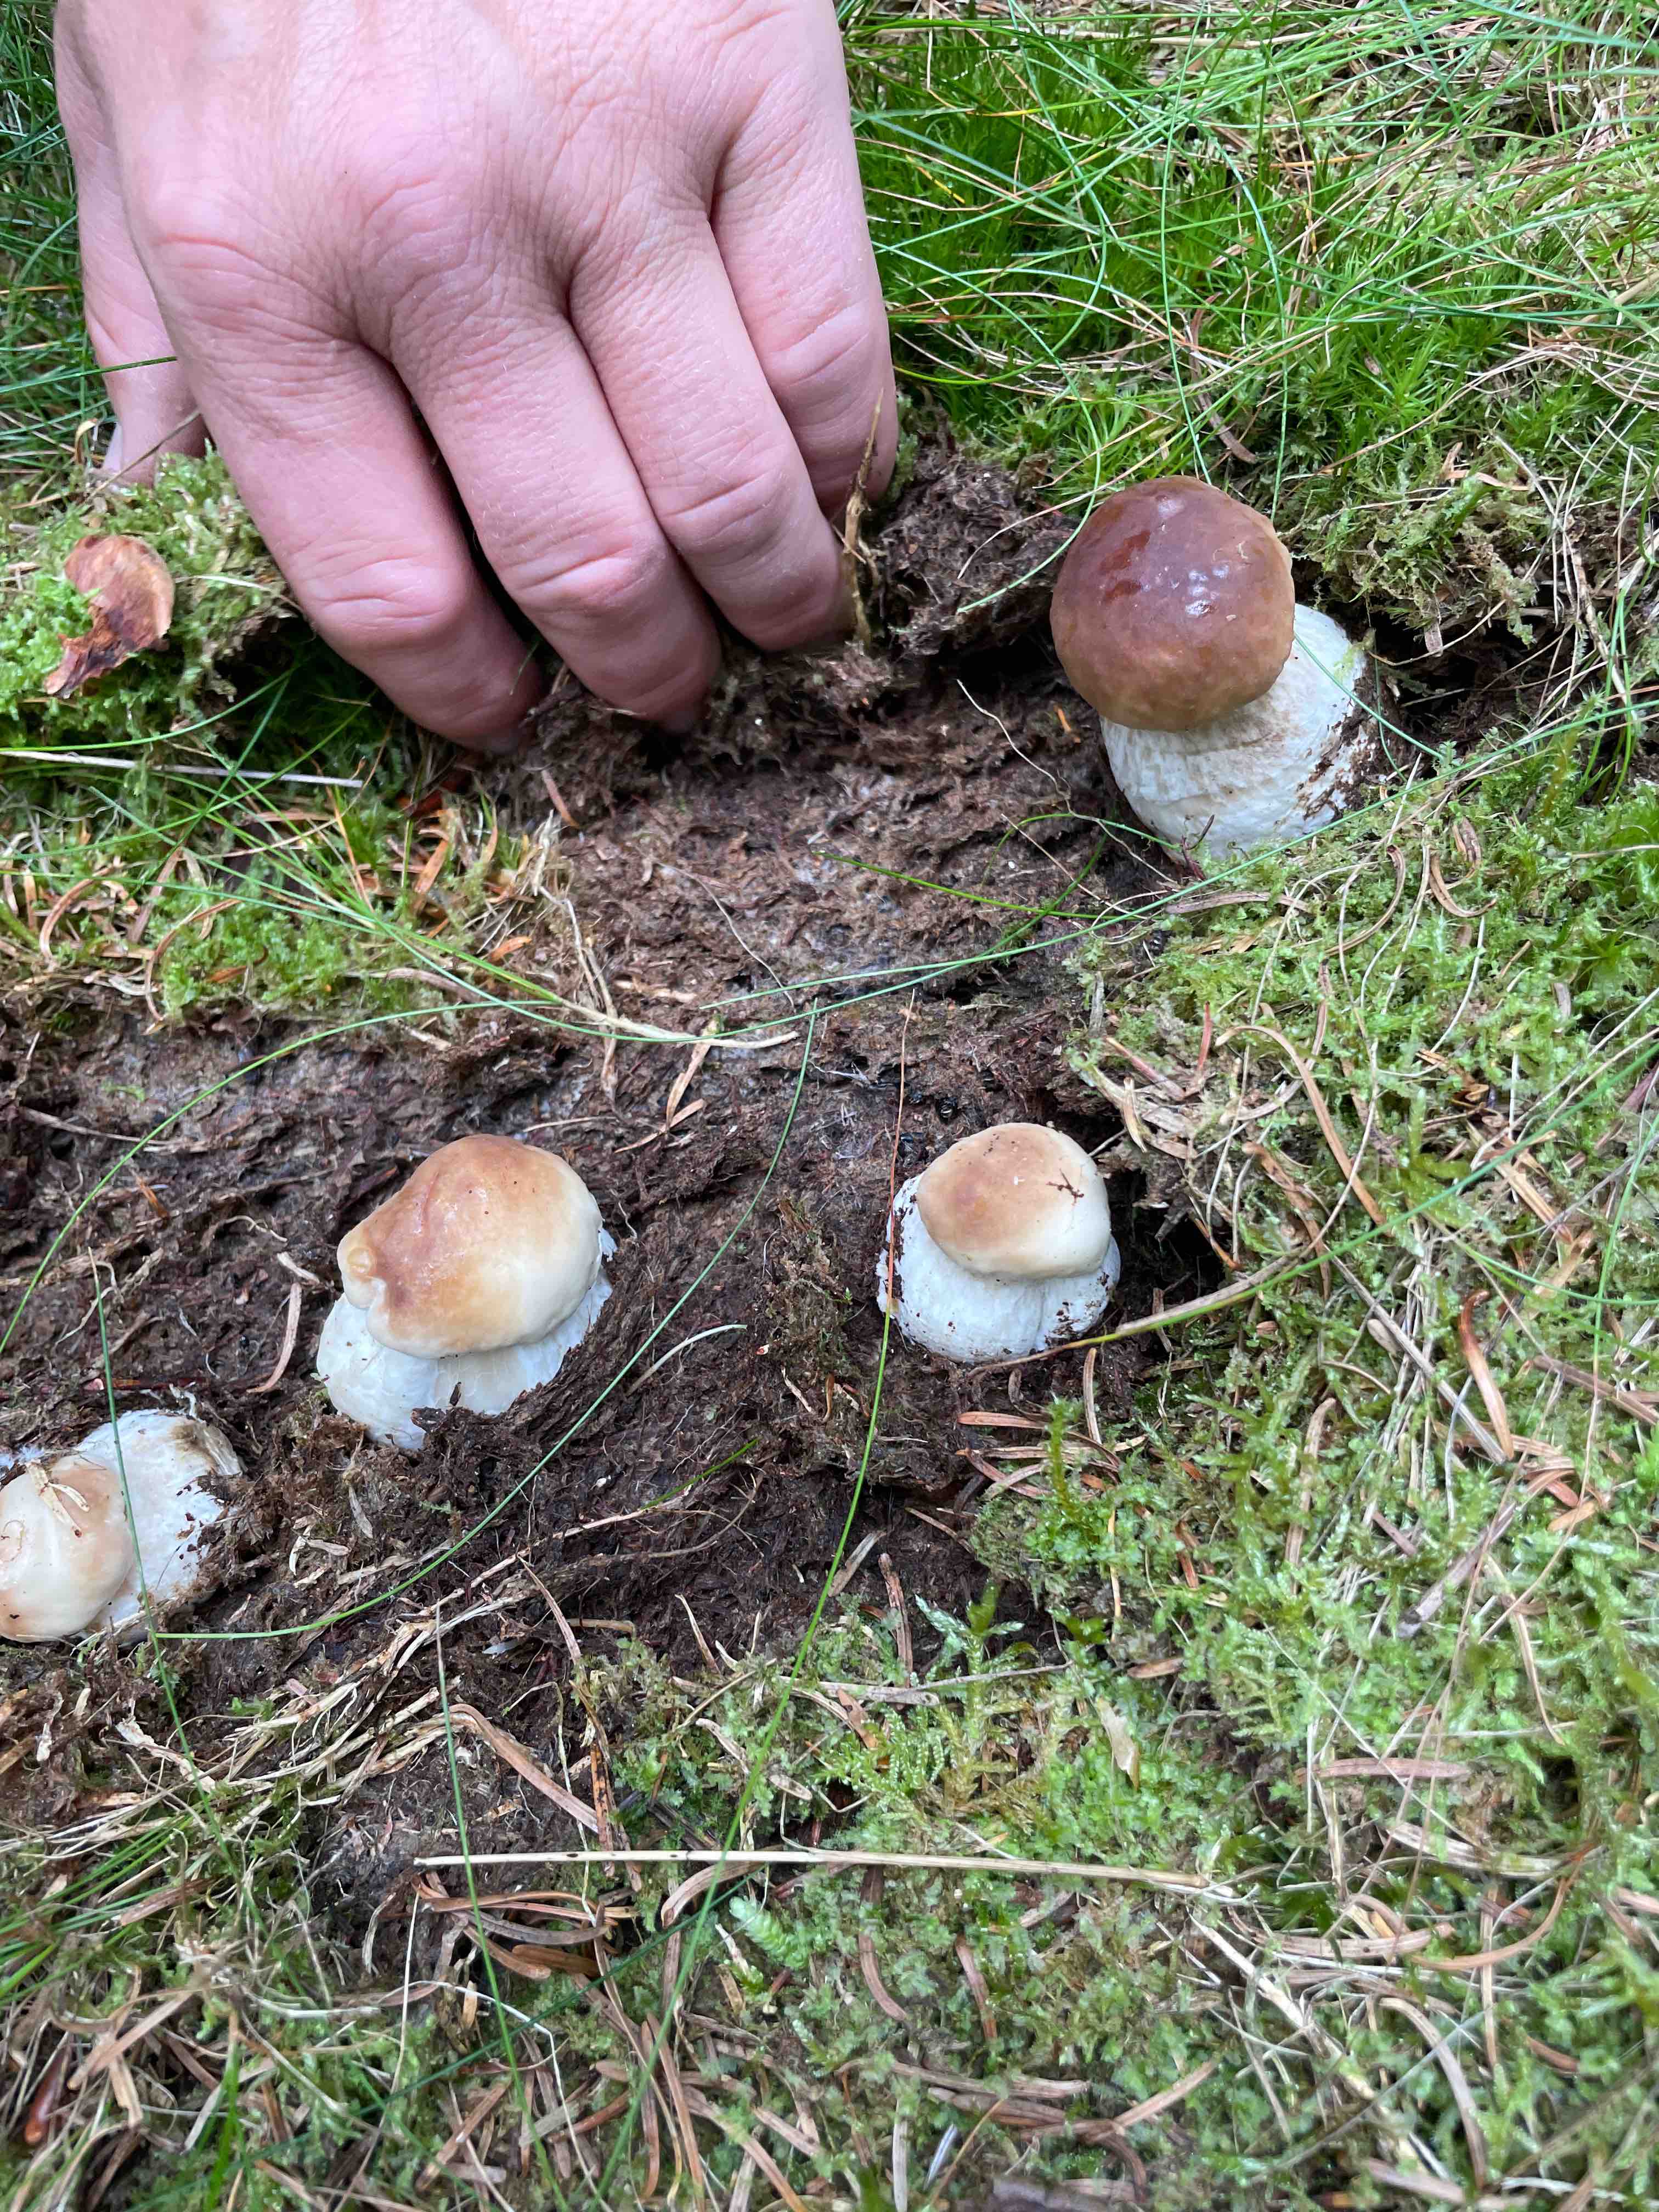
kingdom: Fungi
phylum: Basidiomycota
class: Agaricomycetes
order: Boletales
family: Boletaceae
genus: Boletus
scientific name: Boletus edulis
